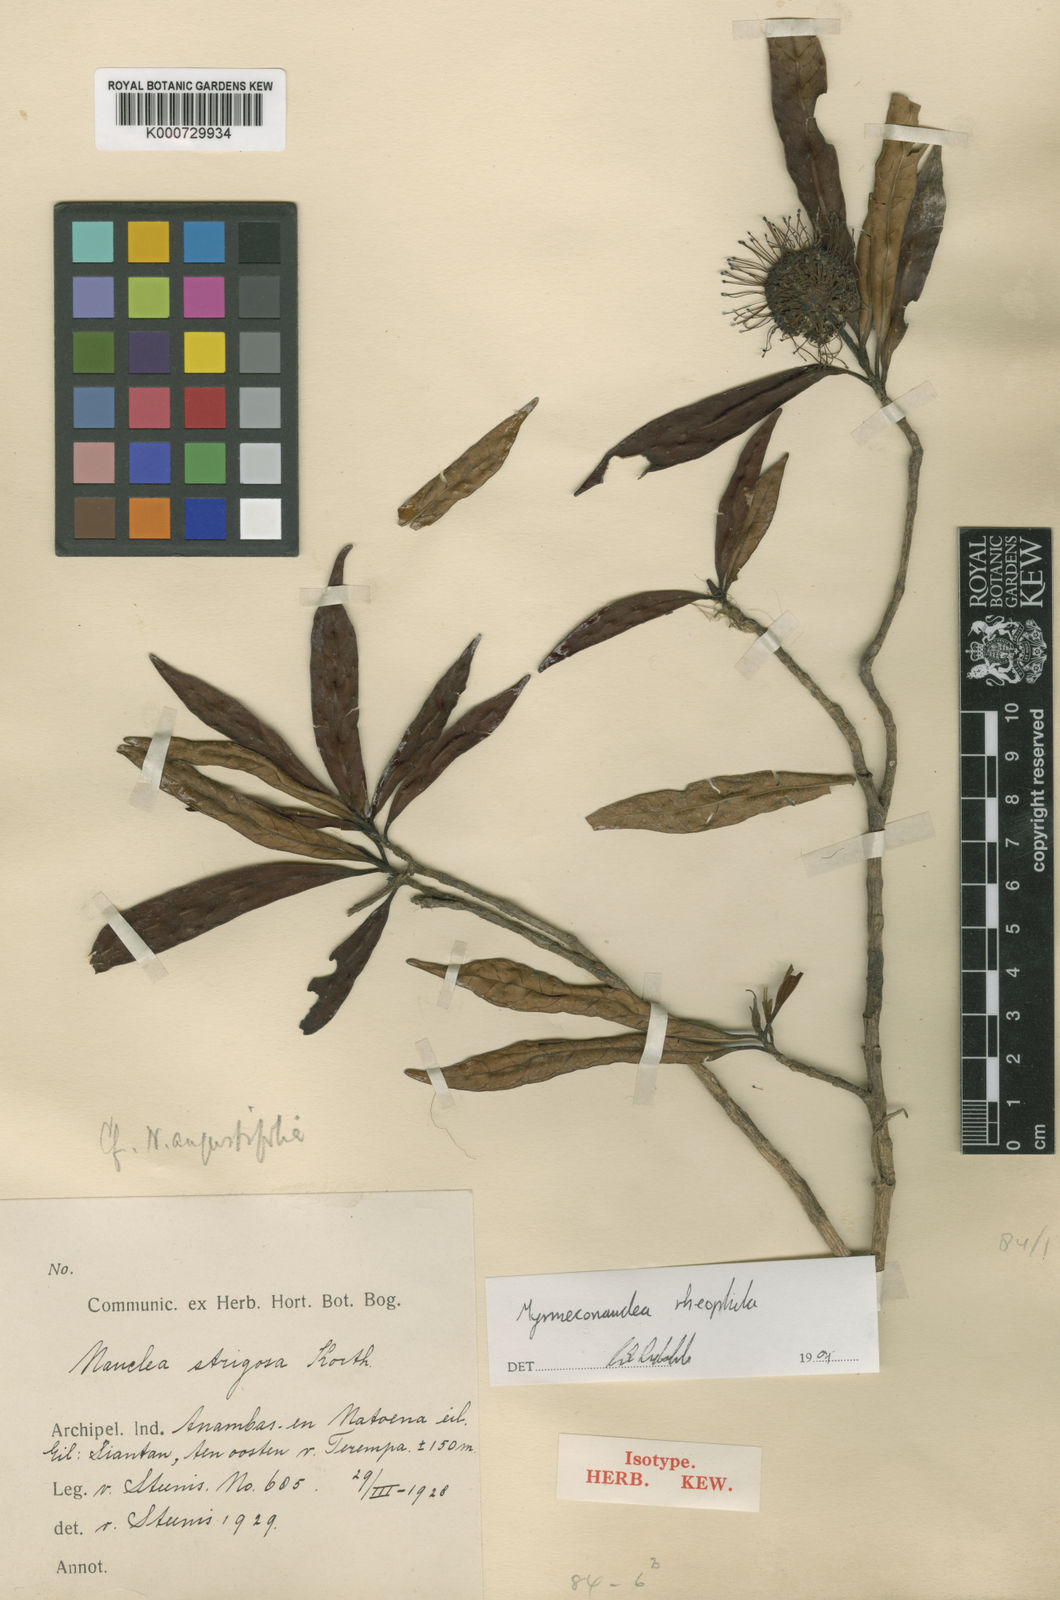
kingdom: Plantae
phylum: Tracheophyta
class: Magnoliopsida
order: Gentianales
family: Rubiaceae
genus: Myrmeconauclea
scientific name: Myrmeconauclea rheophila
